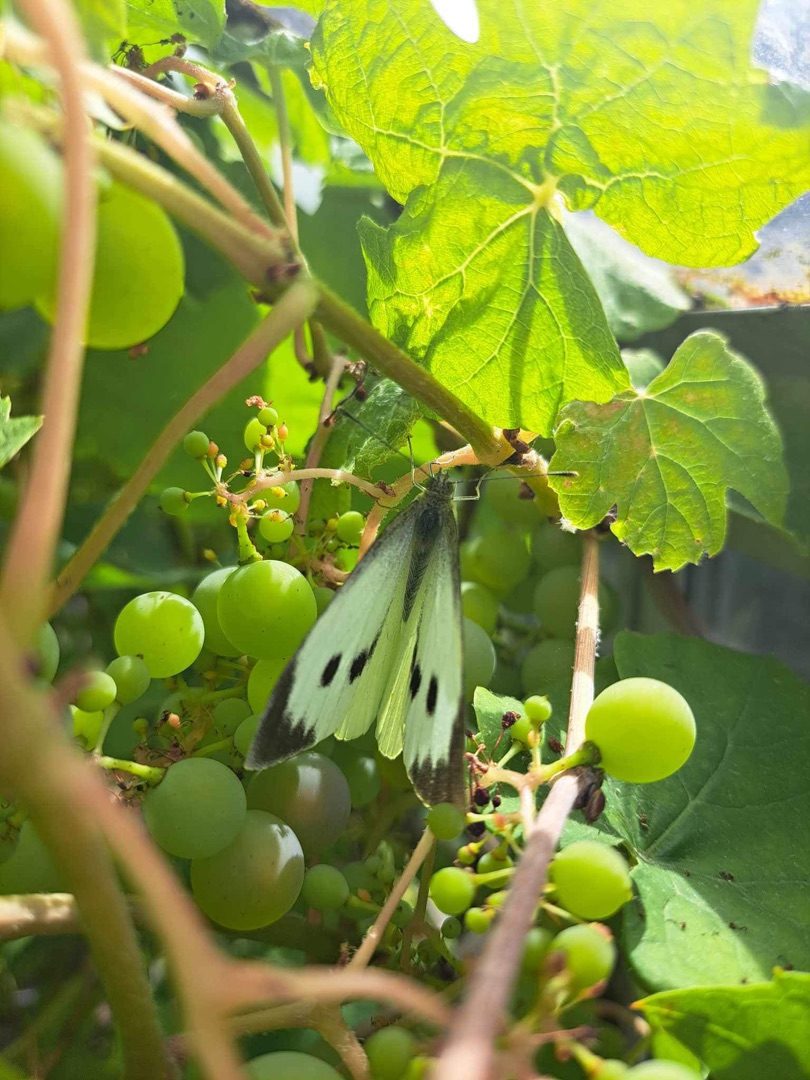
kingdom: Animalia
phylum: Arthropoda
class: Insecta
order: Lepidoptera
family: Pieridae
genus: Pieris
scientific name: Pieris brassicae
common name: Stor kålsommerfugl
